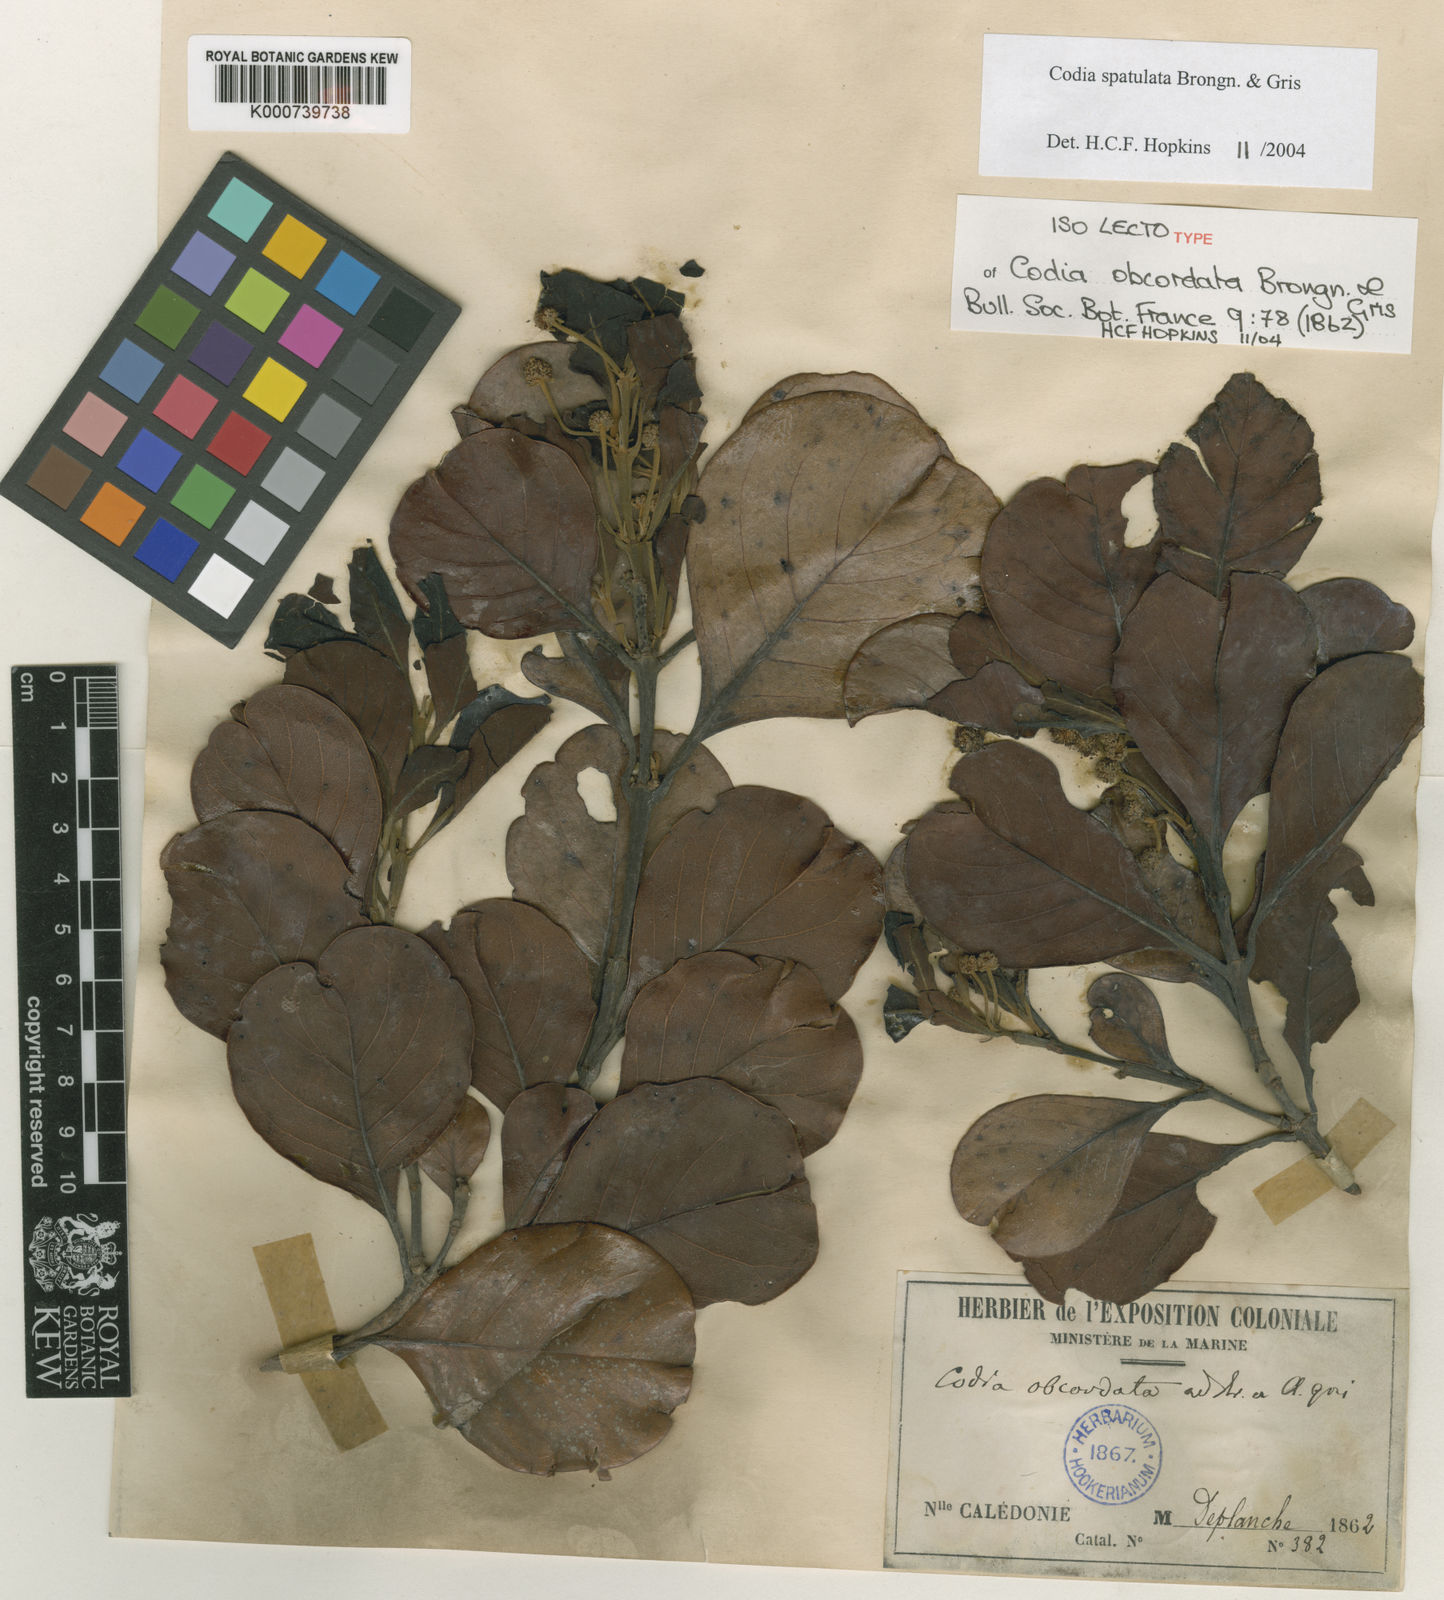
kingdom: Plantae
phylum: Tracheophyta
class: Magnoliopsida
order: Oxalidales
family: Cunoniaceae
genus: Codia
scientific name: Codia spathulata
